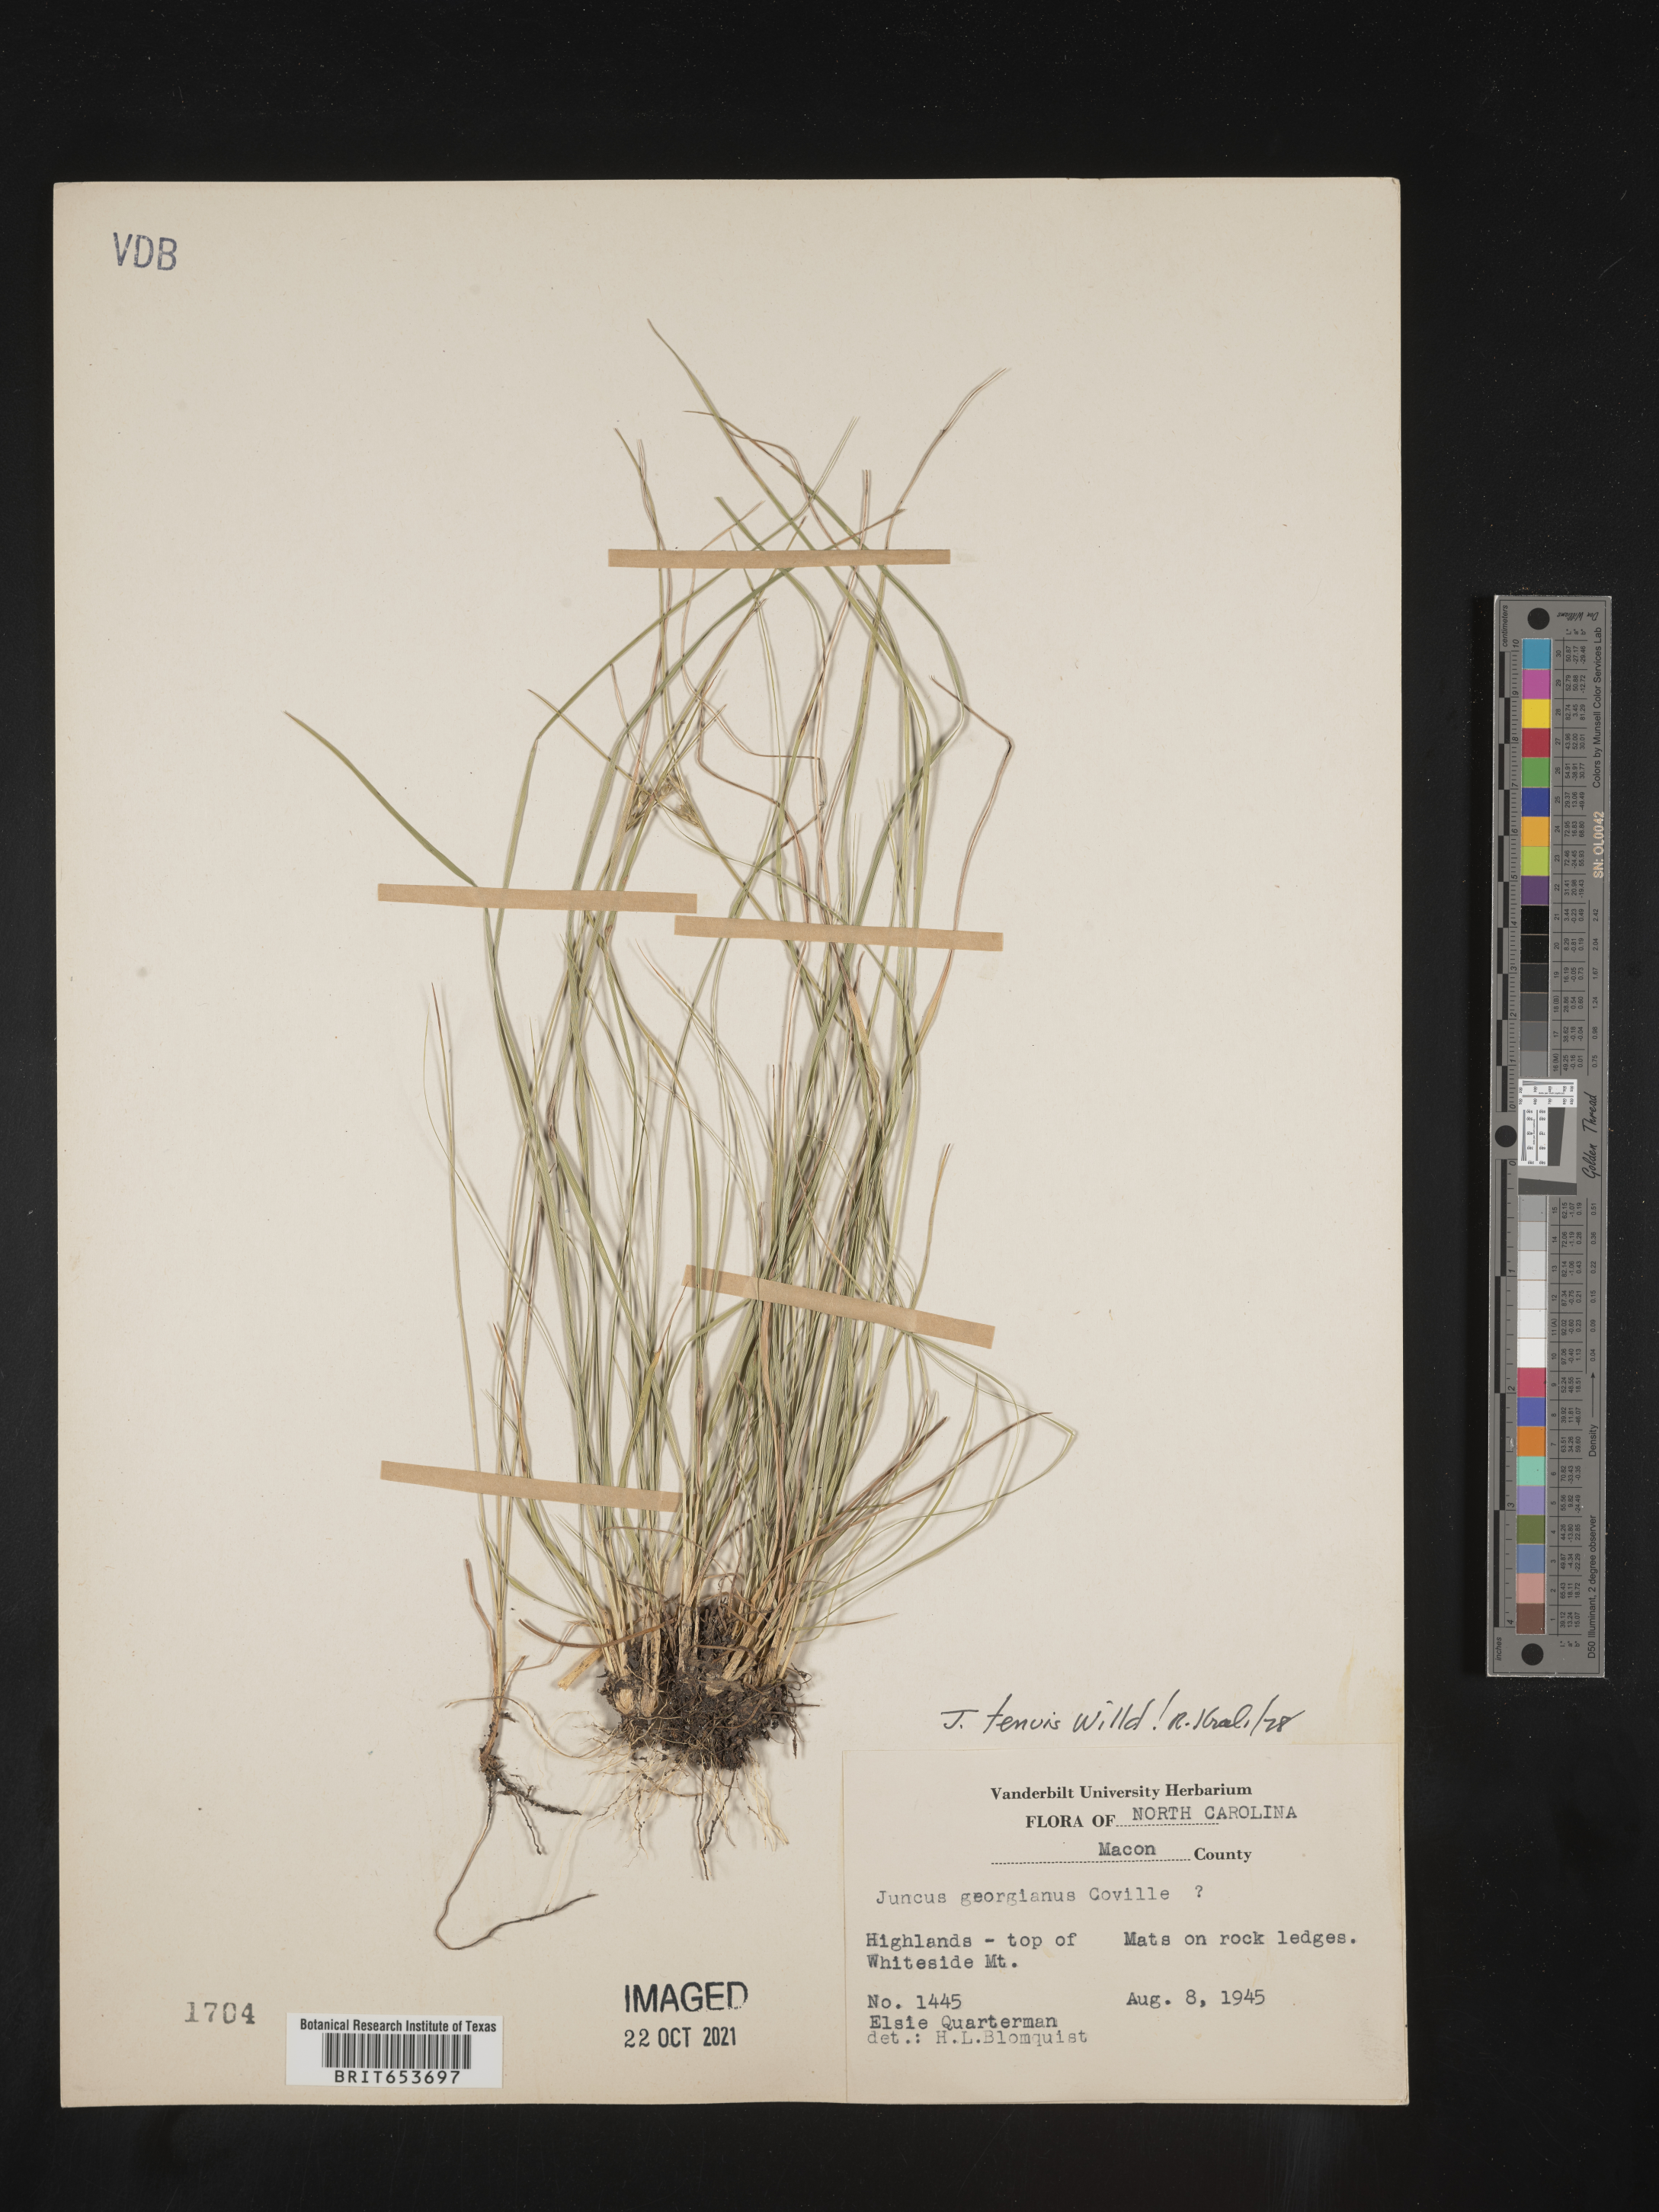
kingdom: Plantae
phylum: Tracheophyta
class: Liliopsida
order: Poales
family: Juncaceae
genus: Juncus
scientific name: Juncus tenuis
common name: Slender rush
